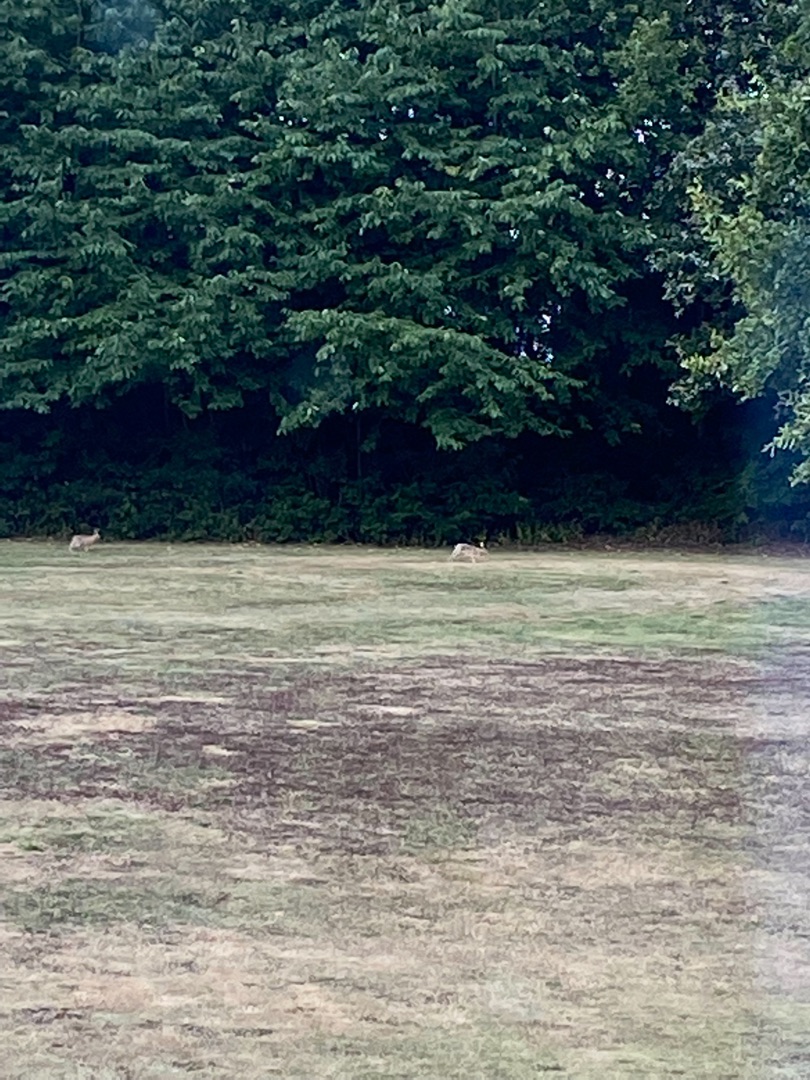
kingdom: Animalia
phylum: Chordata
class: Mammalia
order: Lagomorpha
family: Leporidae
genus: Lepus
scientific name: Lepus europaeus
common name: Hare
